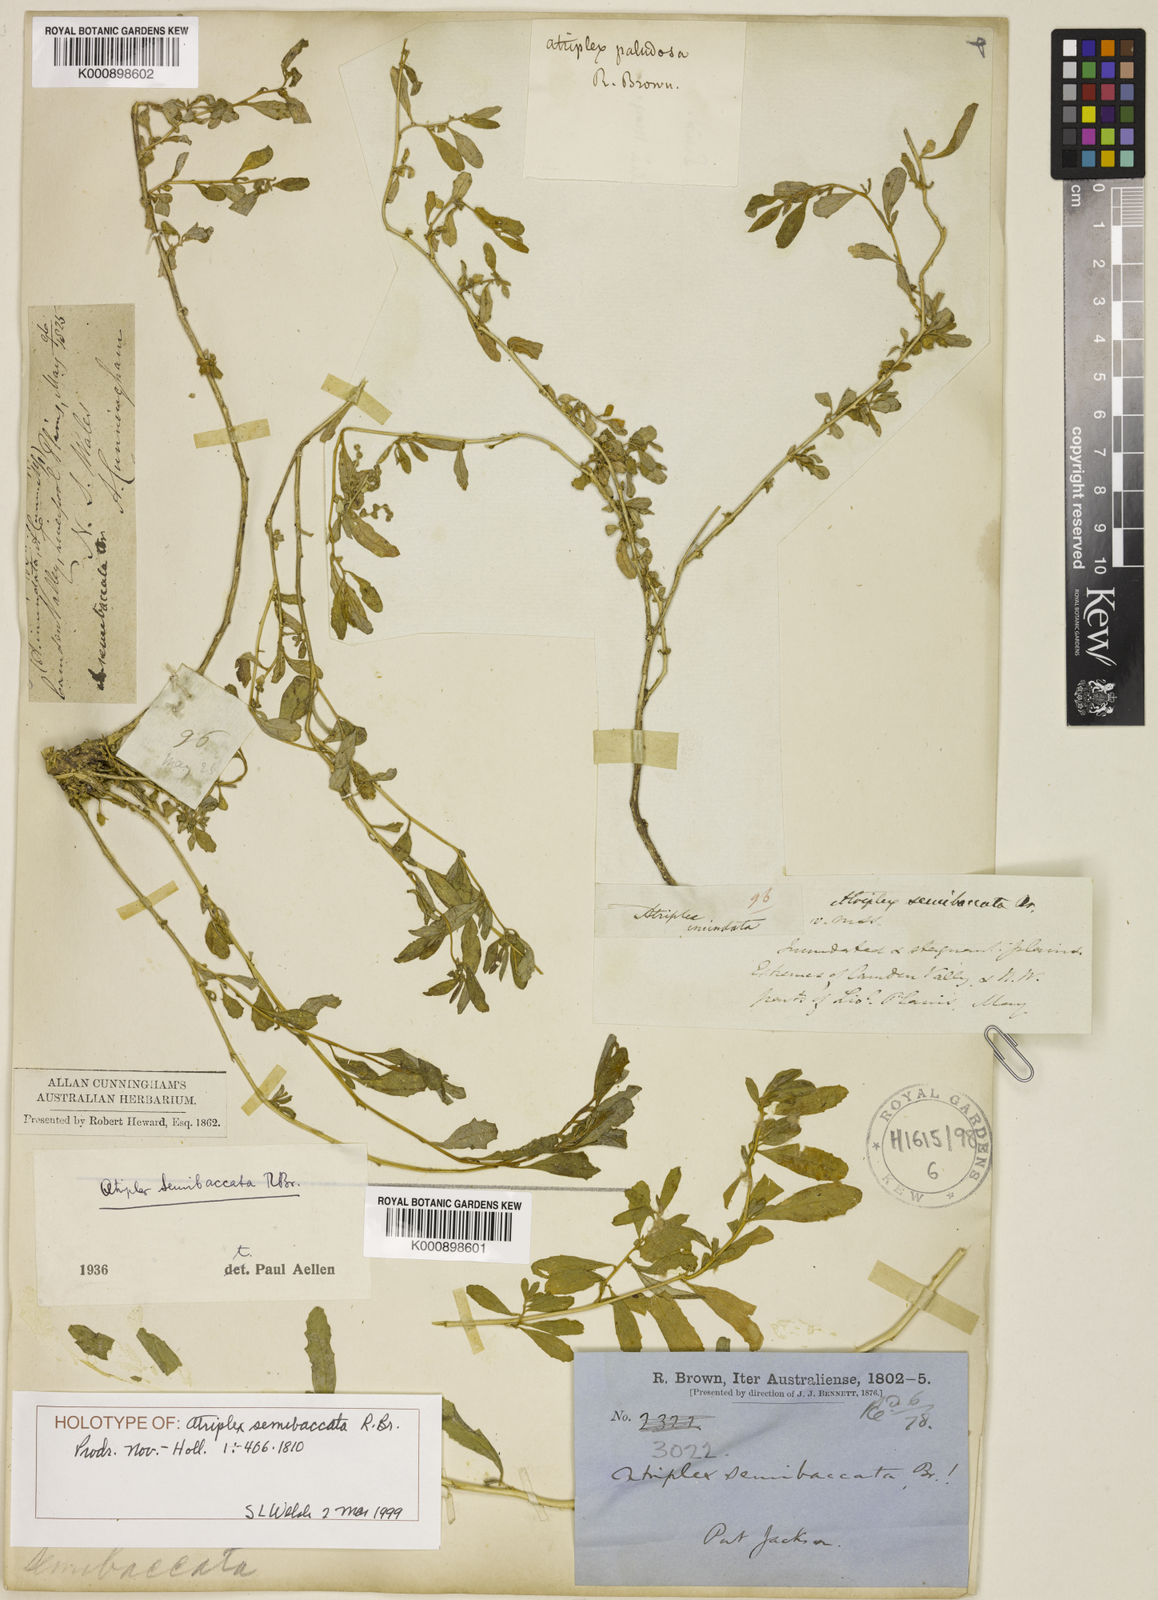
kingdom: Plantae
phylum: Tracheophyta
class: Magnoliopsida
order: Caryophyllales
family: Amaranthaceae
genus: Atriplex
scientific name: Atriplex semibaccata
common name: Australian saltbush
